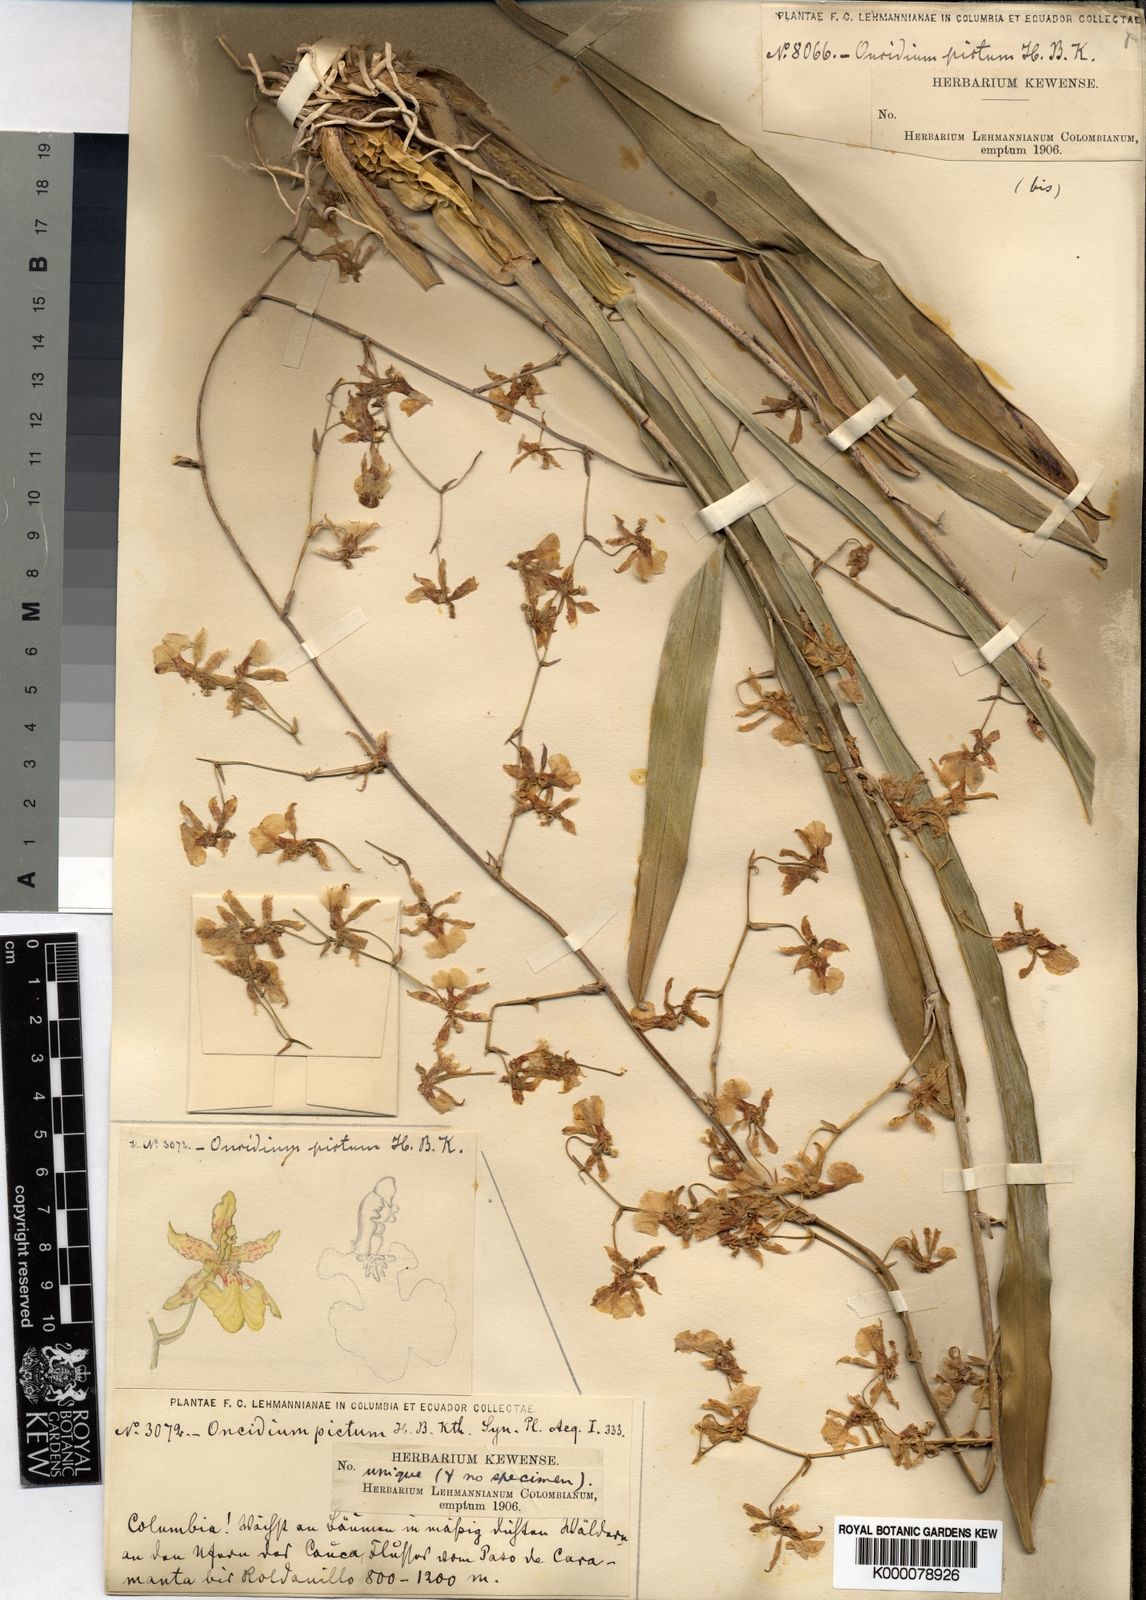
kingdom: Plantae
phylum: Tracheophyta
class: Liliopsida
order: Asparagales
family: Orchidaceae
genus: Oncidium
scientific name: Oncidium pictum
